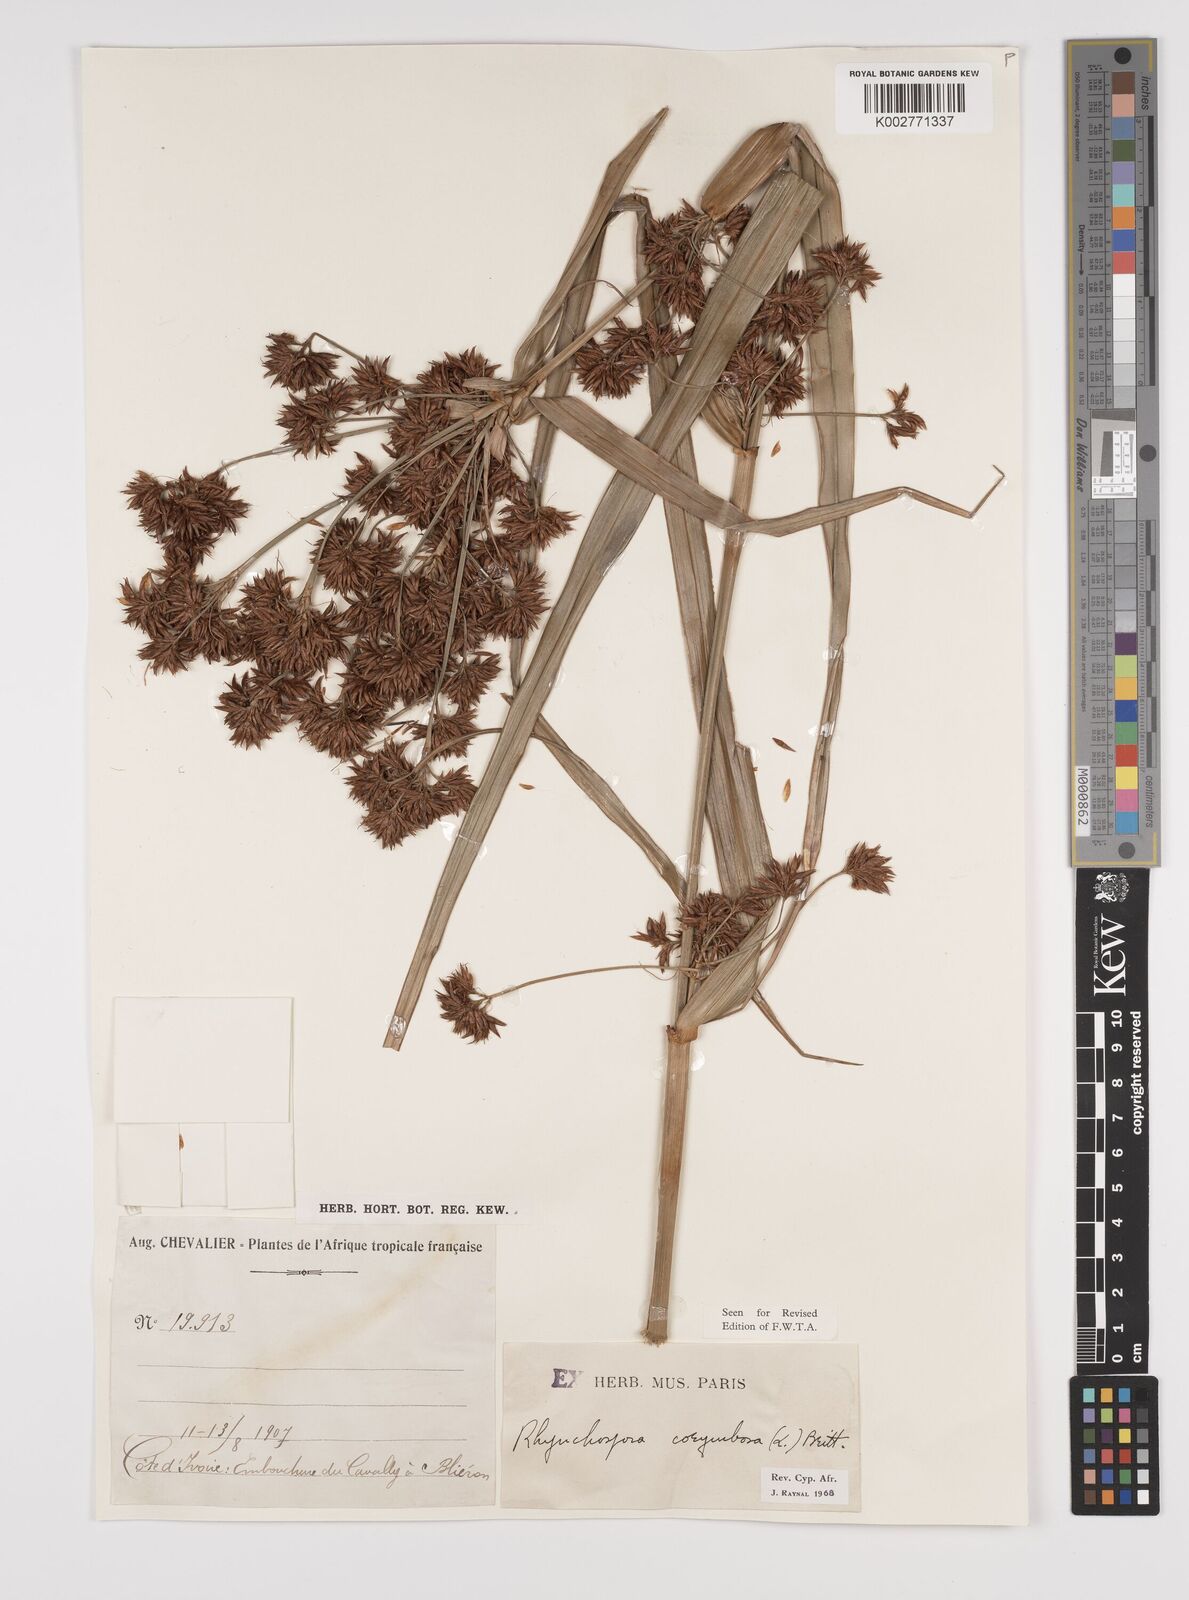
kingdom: Plantae
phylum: Tracheophyta
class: Liliopsida
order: Poales
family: Cyperaceae
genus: Rhynchospora
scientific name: Rhynchospora corymbosa
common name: Golden beak sedge
